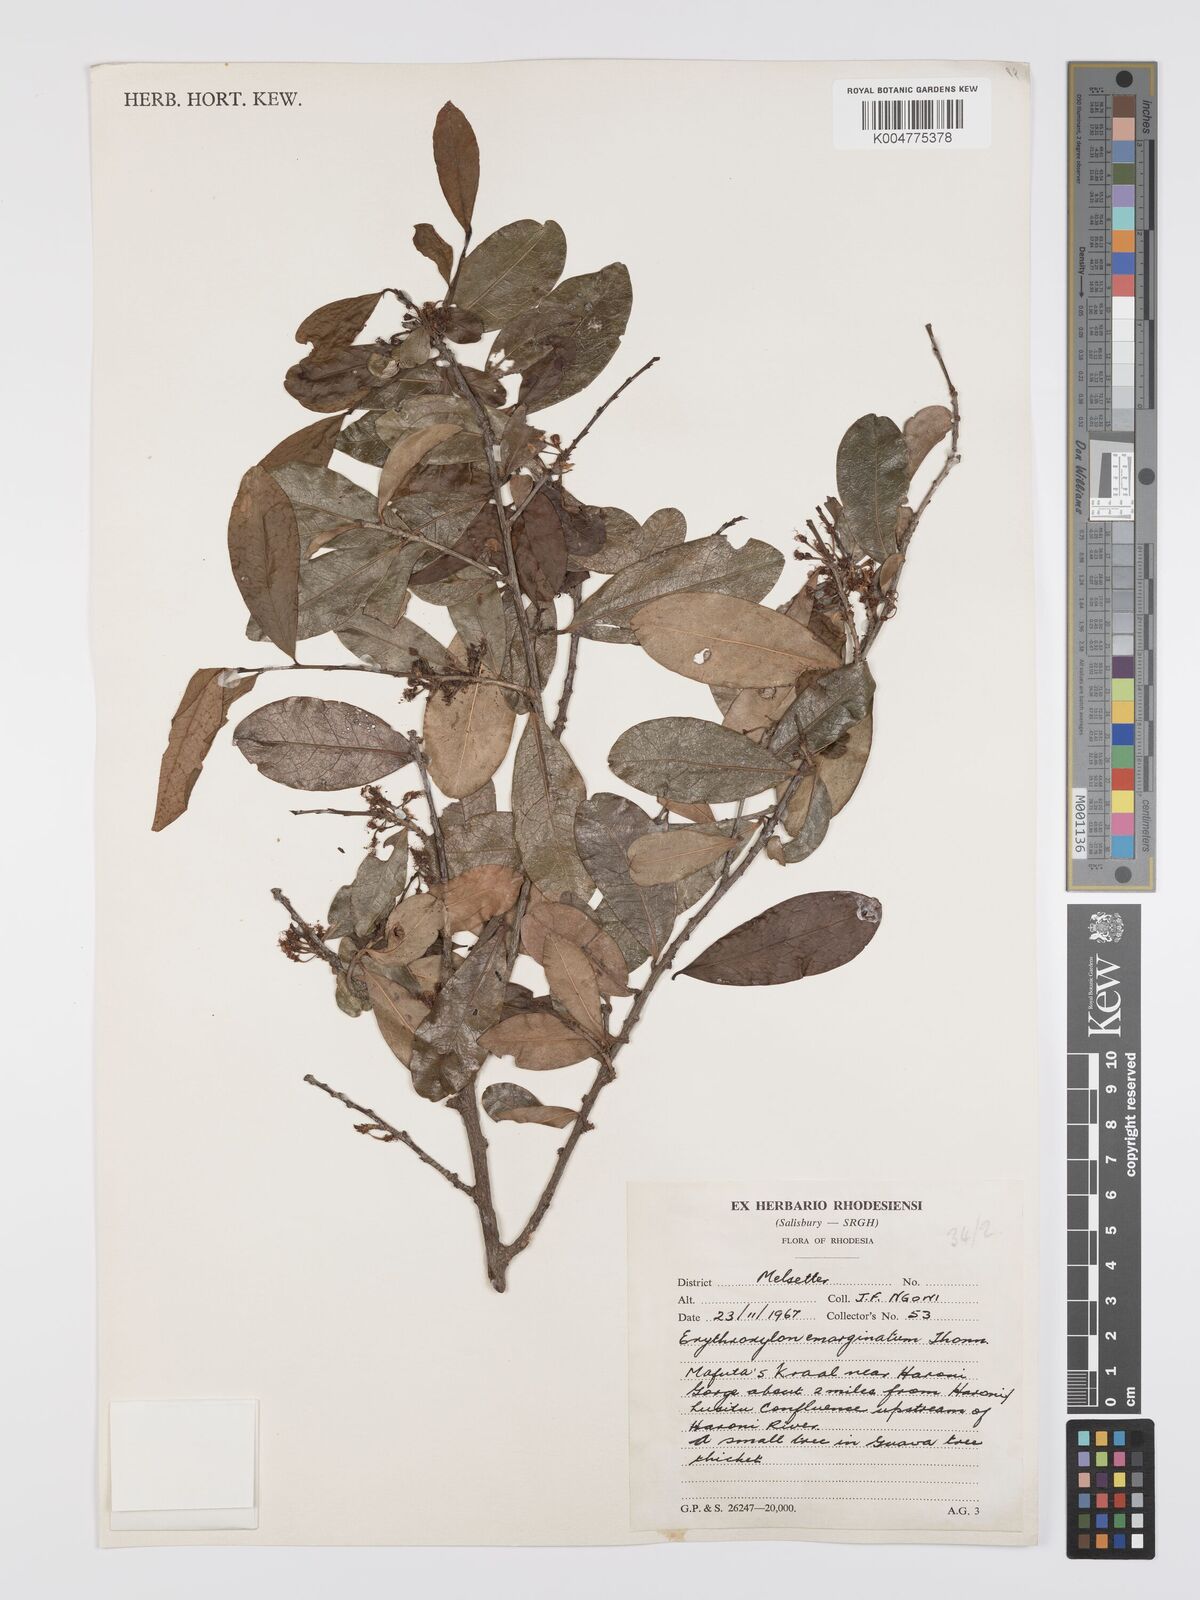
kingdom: Plantae
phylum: Tracheophyta
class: Magnoliopsida
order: Malpighiales
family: Erythroxylaceae
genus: Erythroxylum
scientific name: Erythroxylum emarginatum
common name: African coca-tree
